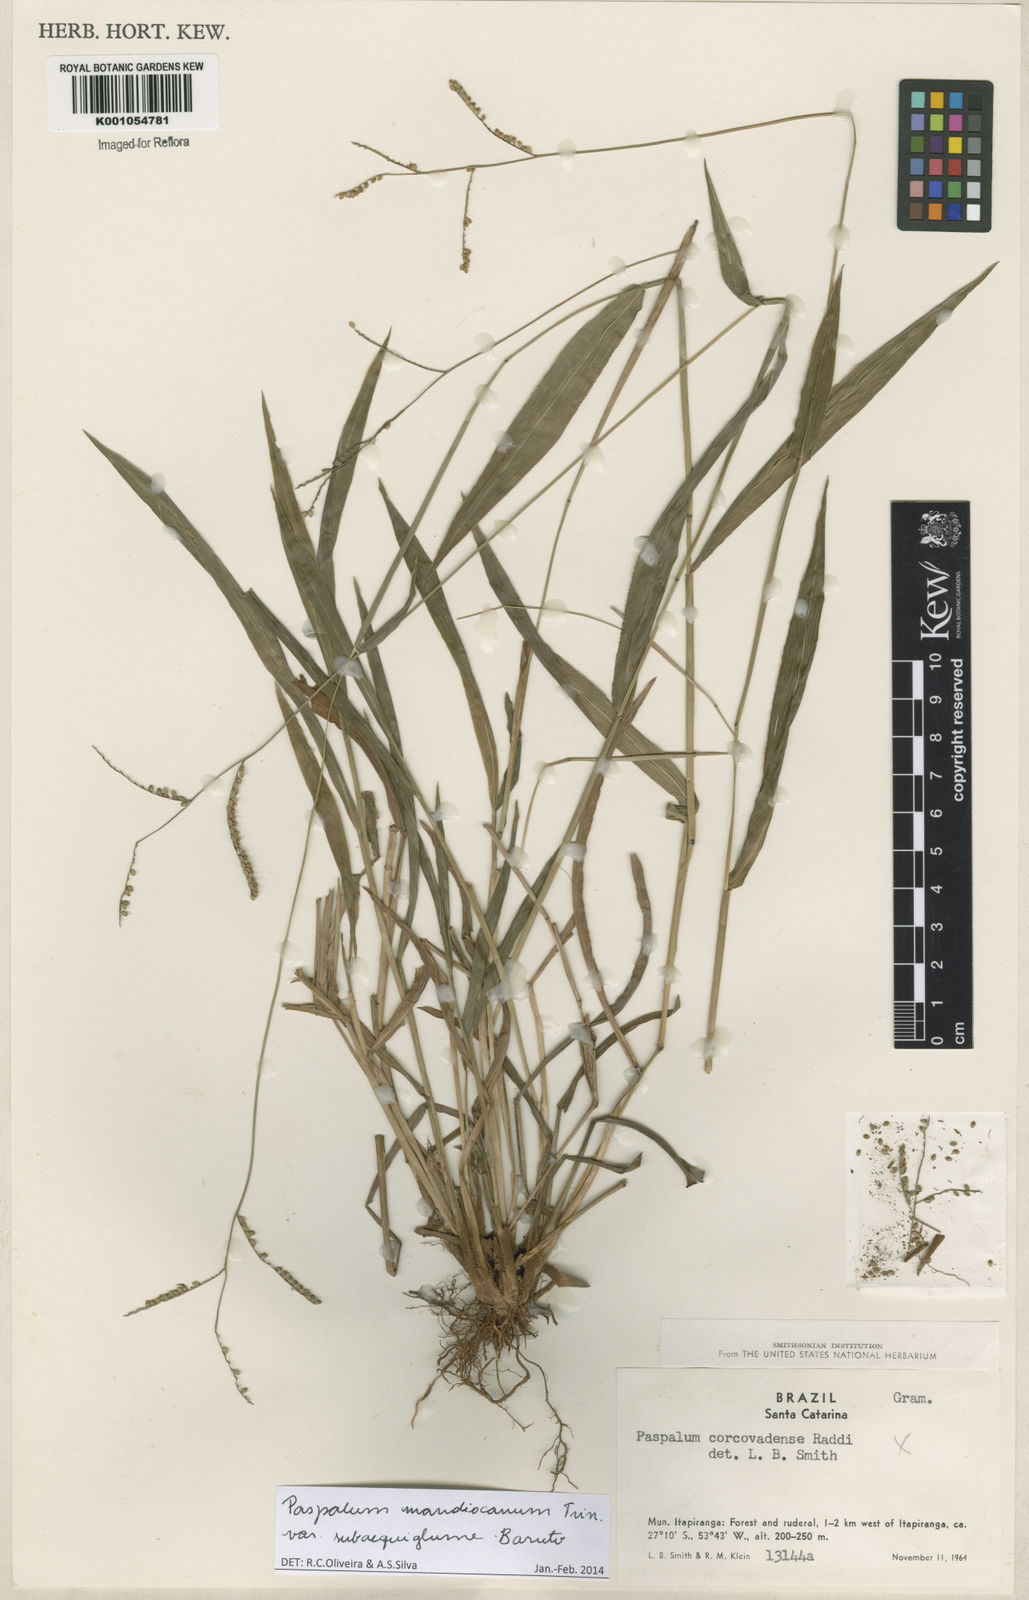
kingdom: Plantae
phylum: Tracheophyta
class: Liliopsida
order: Poales
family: Poaceae
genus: Paspalum
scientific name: Paspalum mandiocanum
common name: Paspalum
